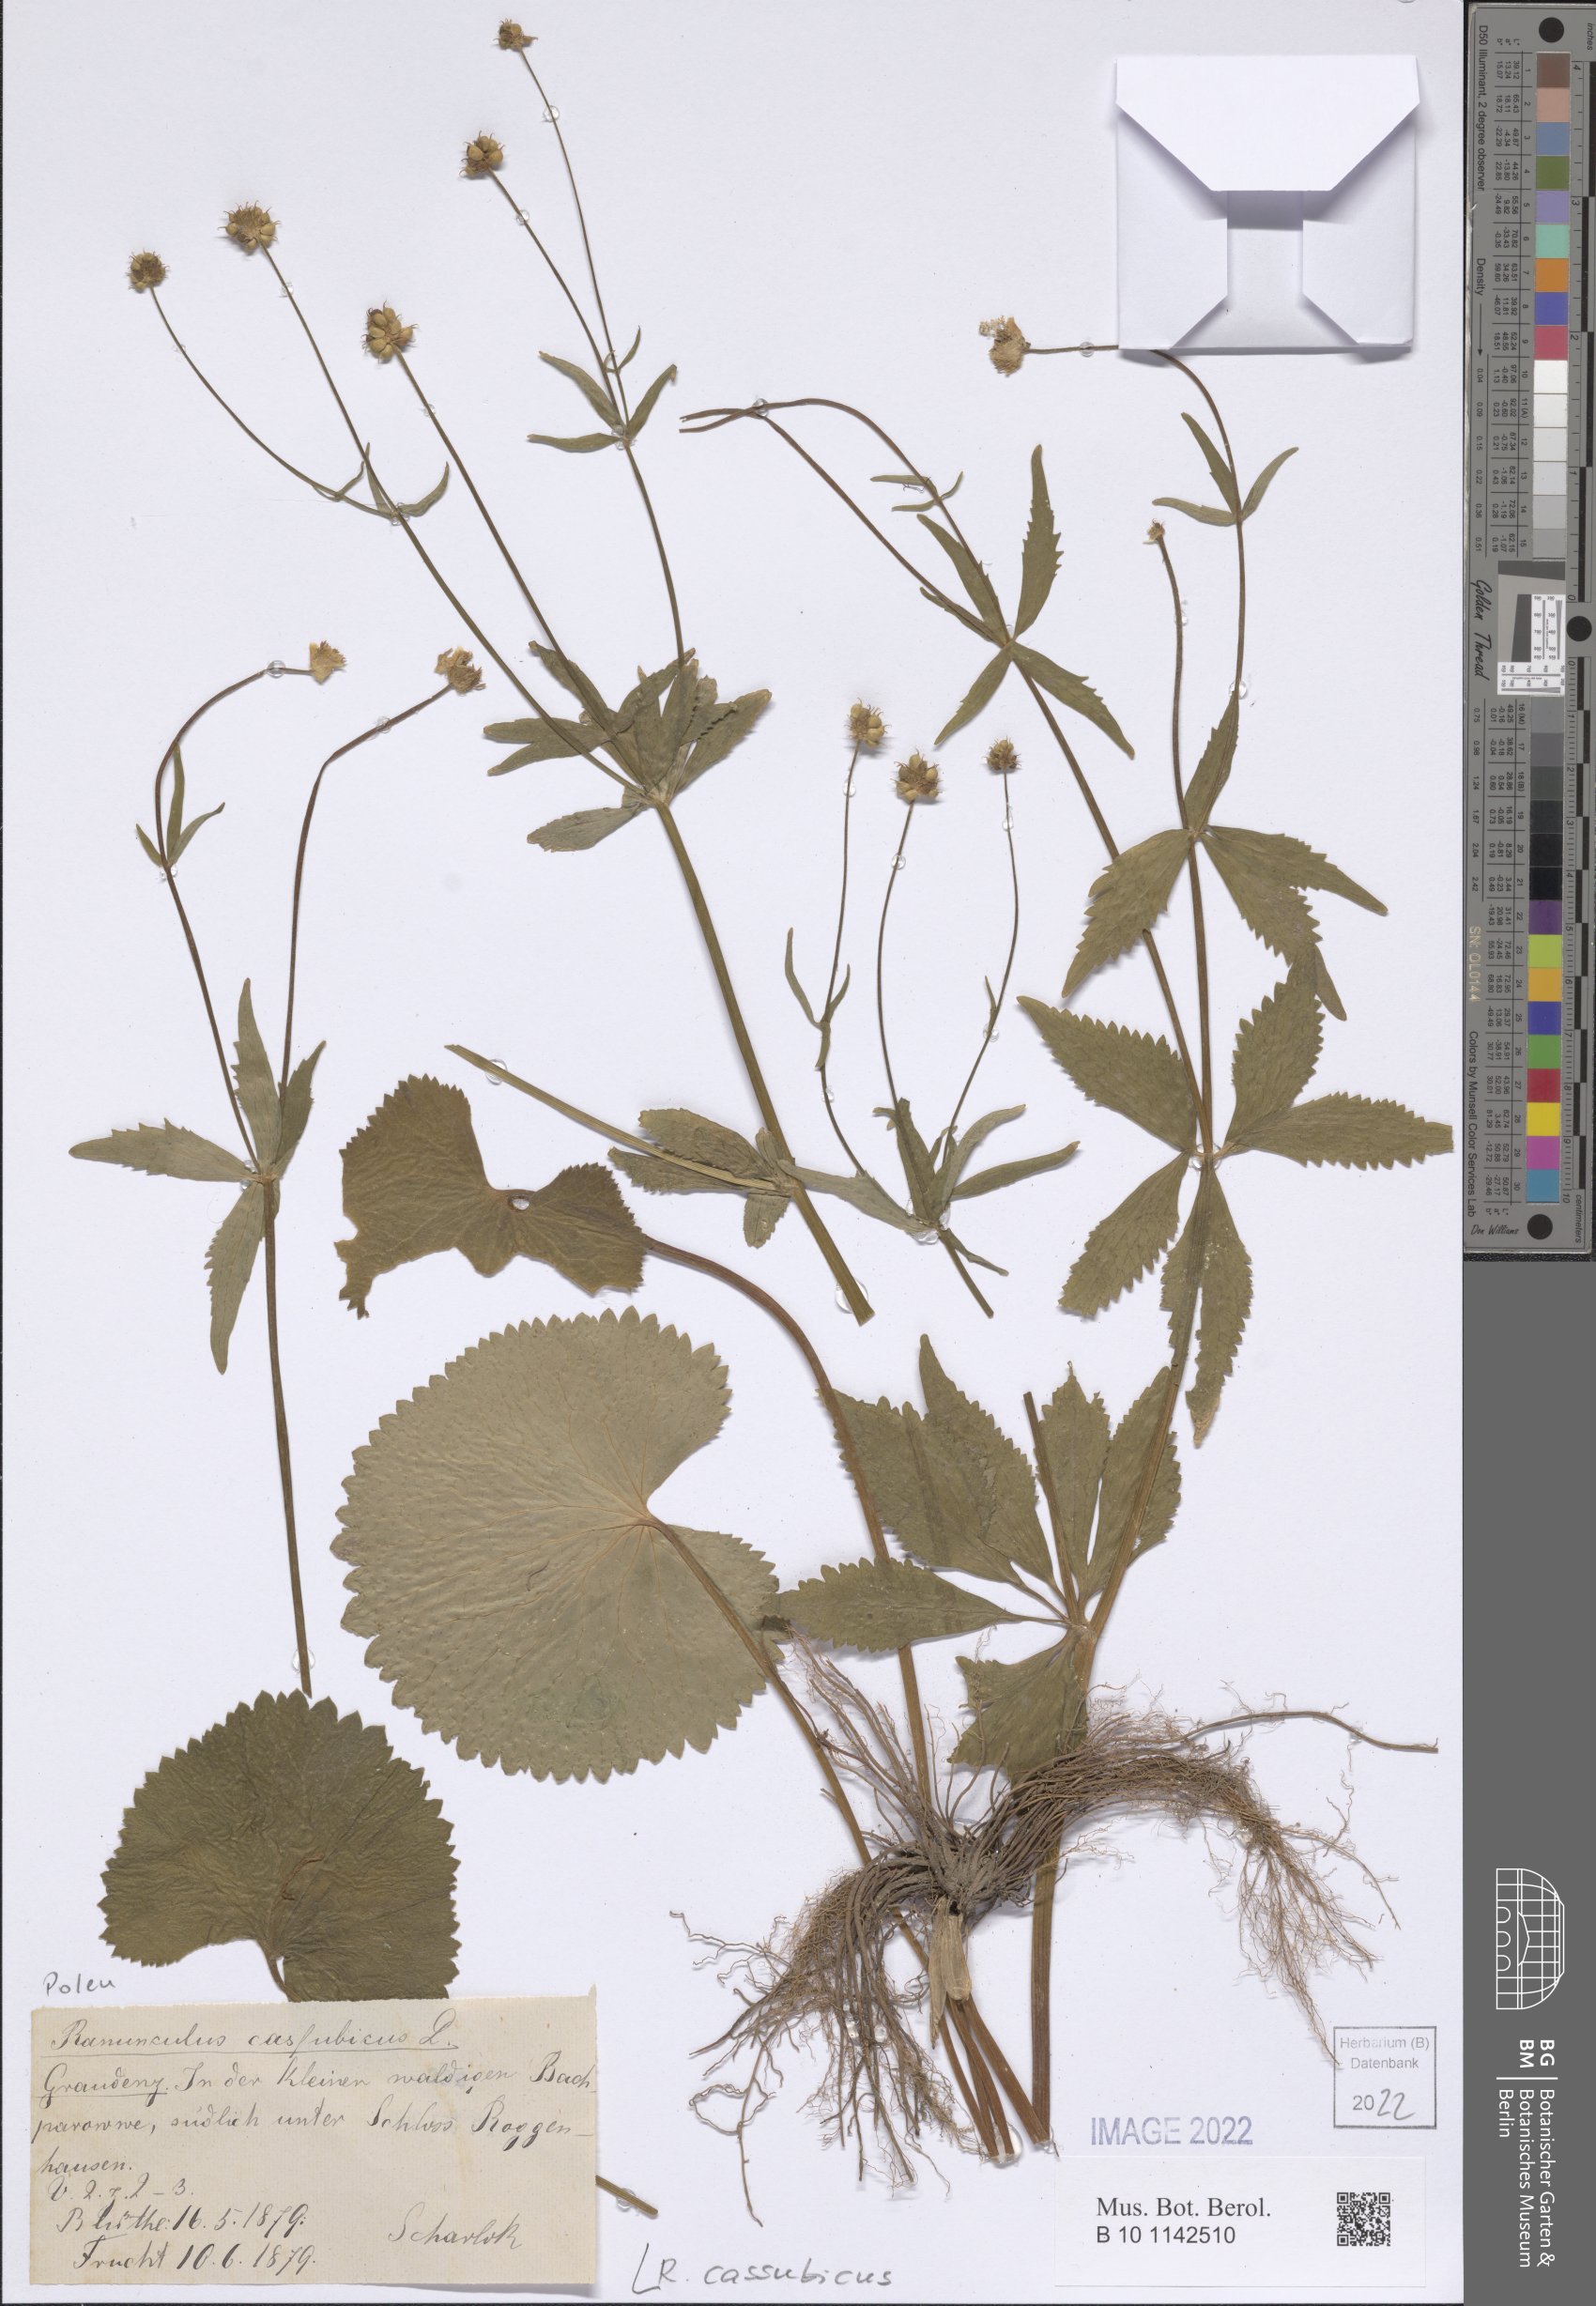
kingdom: Plantae
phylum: Tracheophyta
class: Magnoliopsida
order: Ranunculales
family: Ranunculaceae
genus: Ranunculus
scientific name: Ranunculus cassubicus
